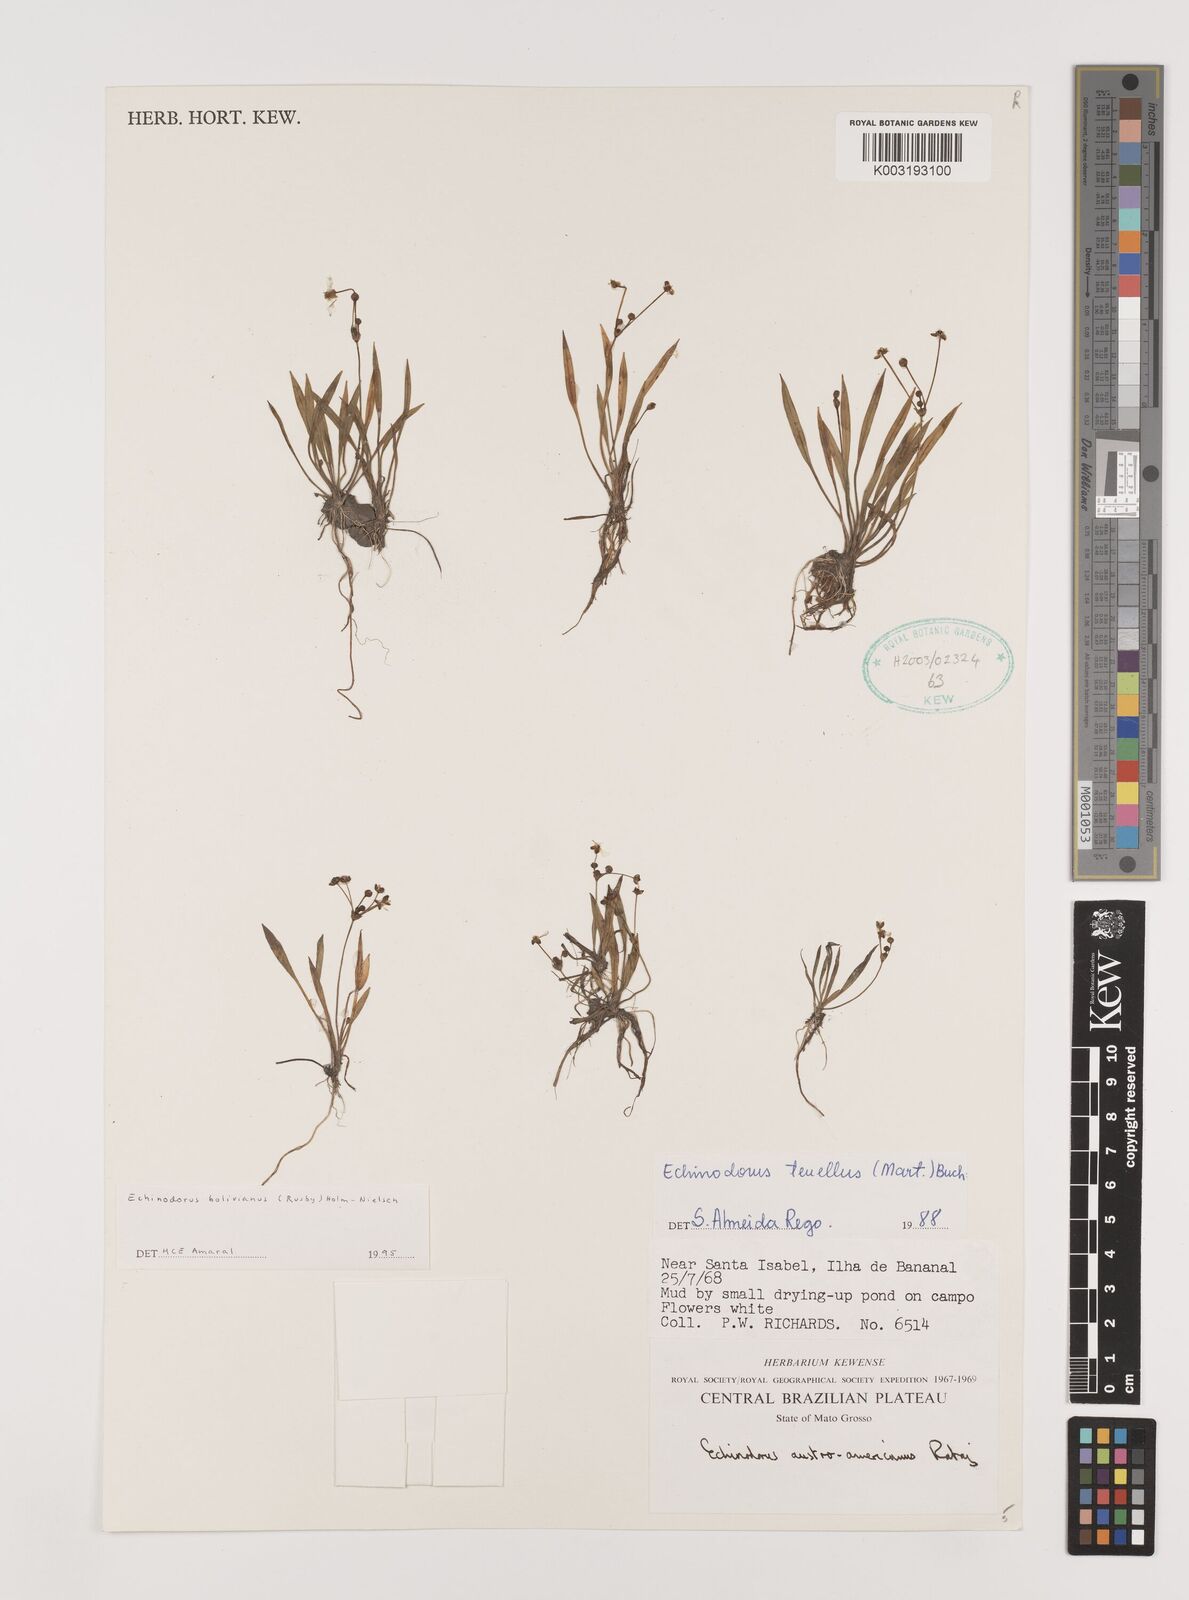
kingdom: Plantae
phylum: Tracheophyta
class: Liliopsida
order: Alismatales
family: Alismataceae
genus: Helanthium
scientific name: Helanthium bolivianum
